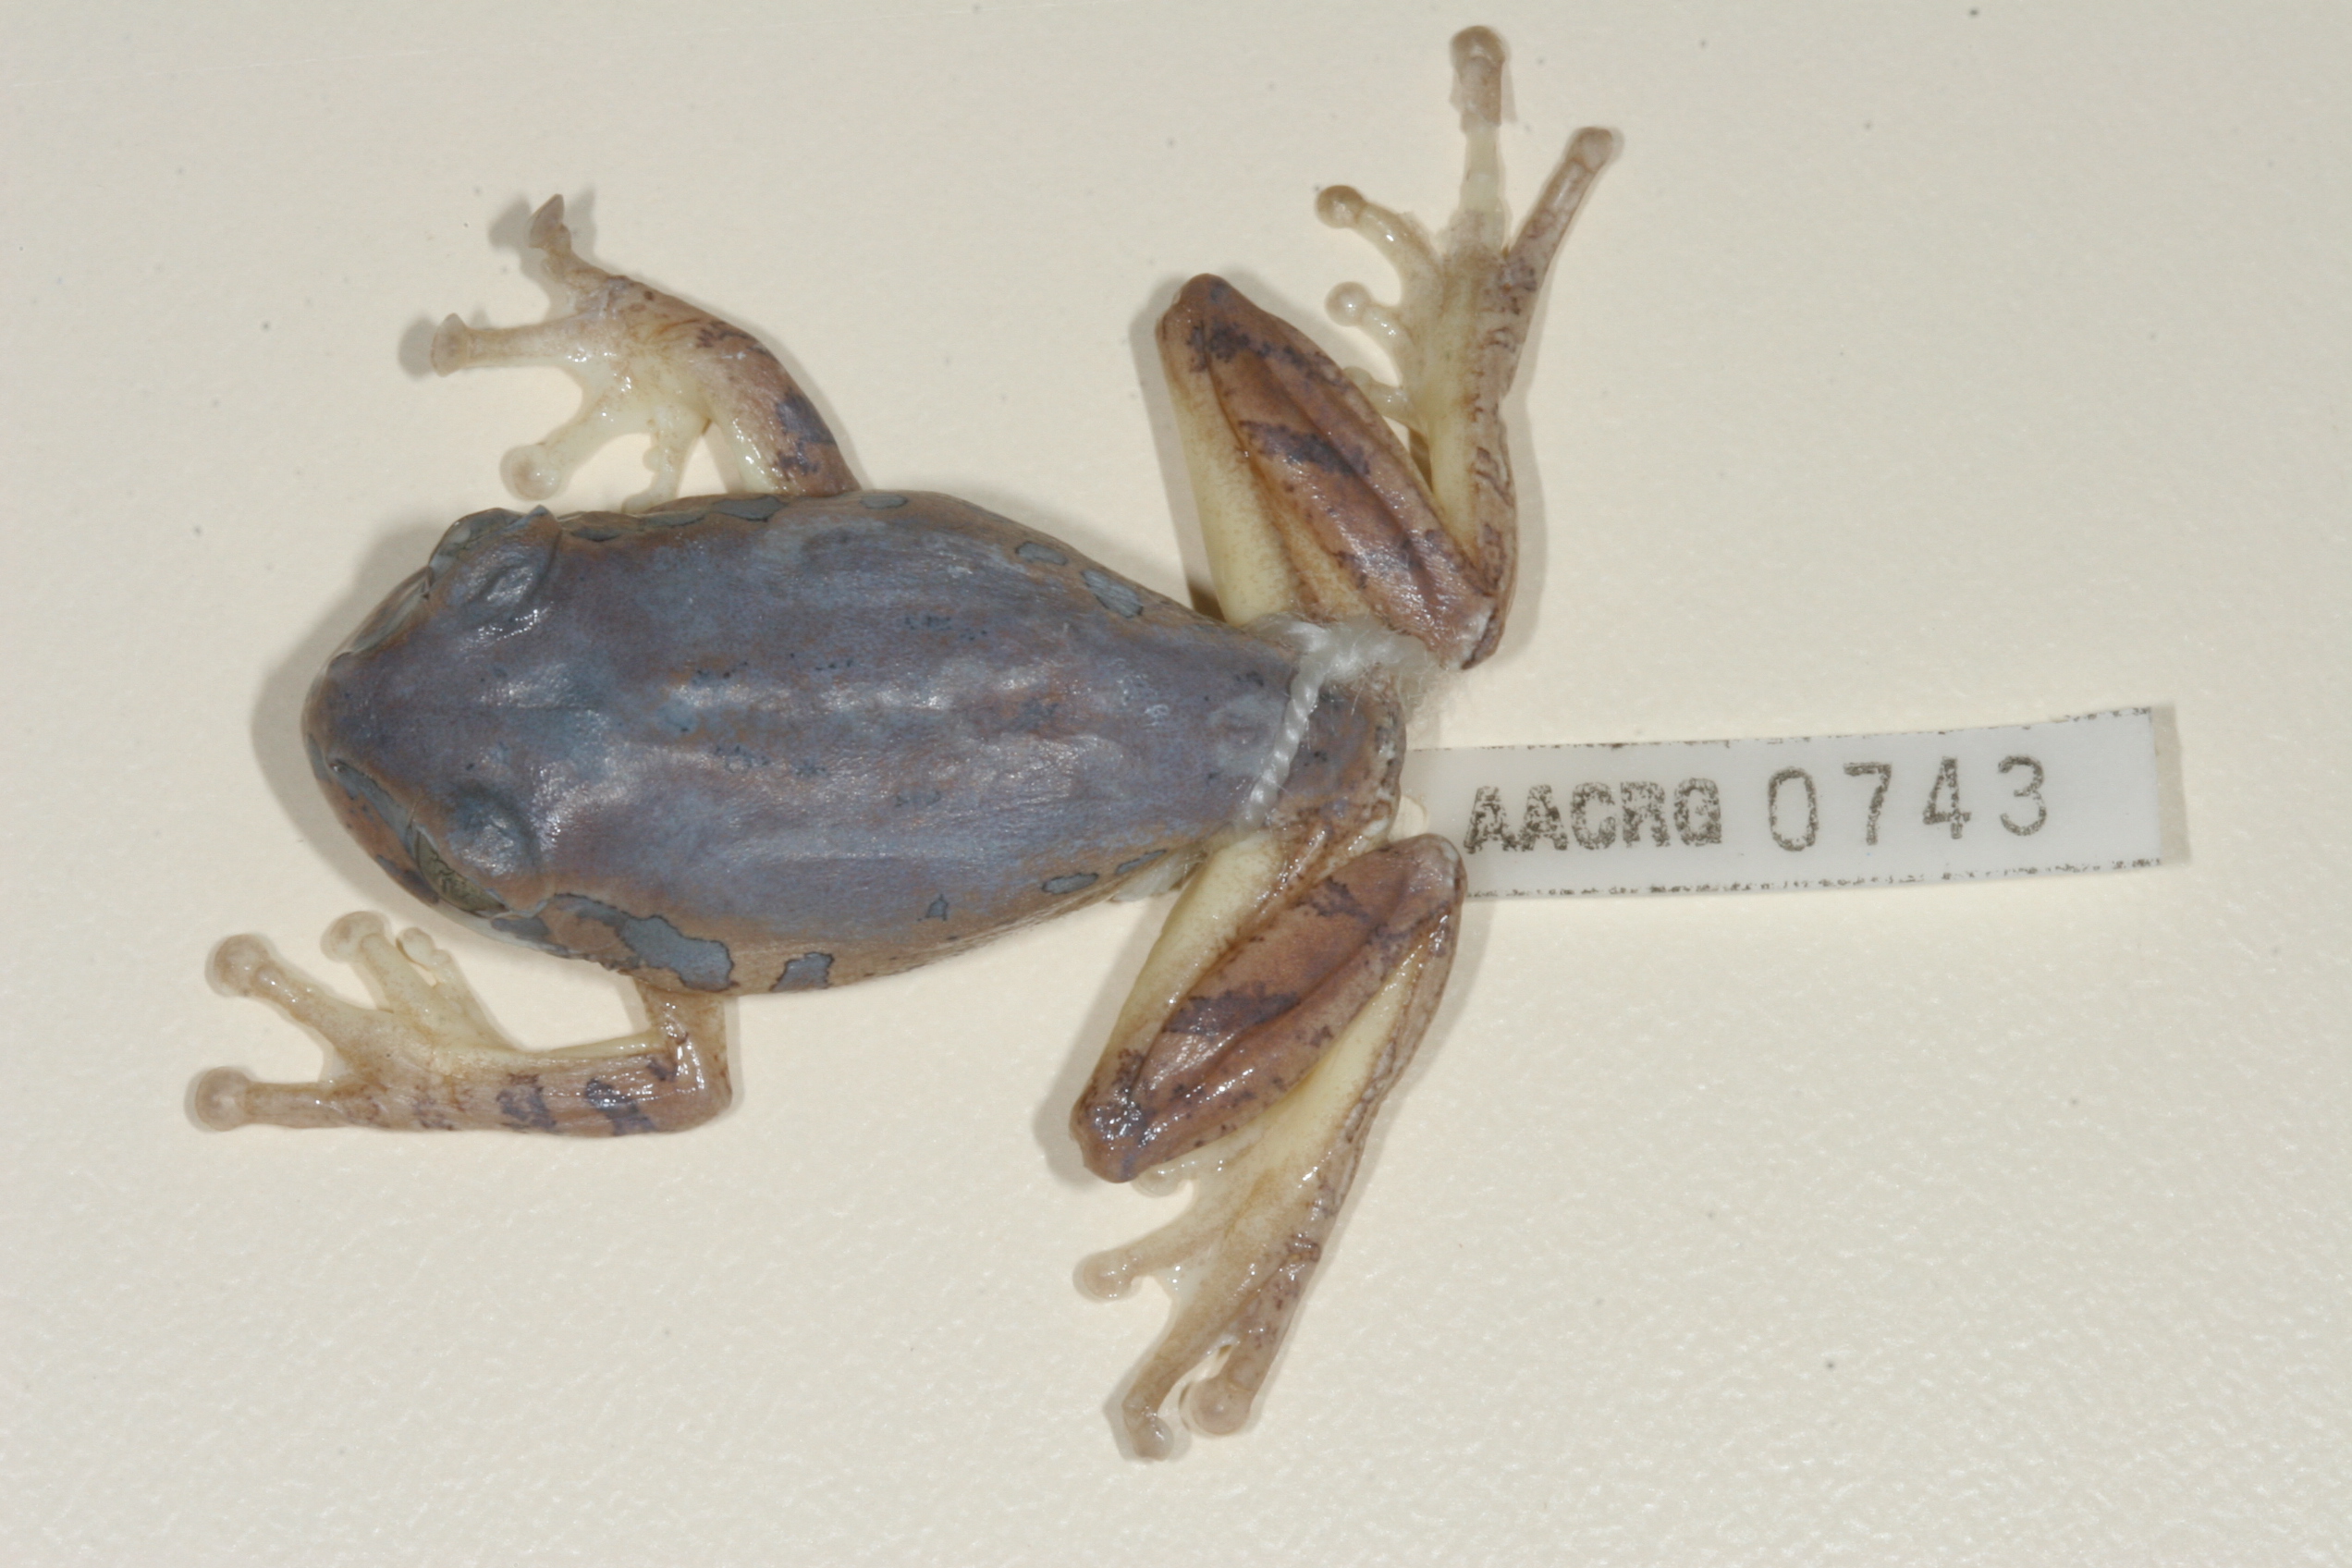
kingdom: Animalia
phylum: Chordata
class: Amphibia
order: Anura
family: Arthroleptidae
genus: Leptopelis
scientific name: Leptopelis natalensis
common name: Natal tree frog
